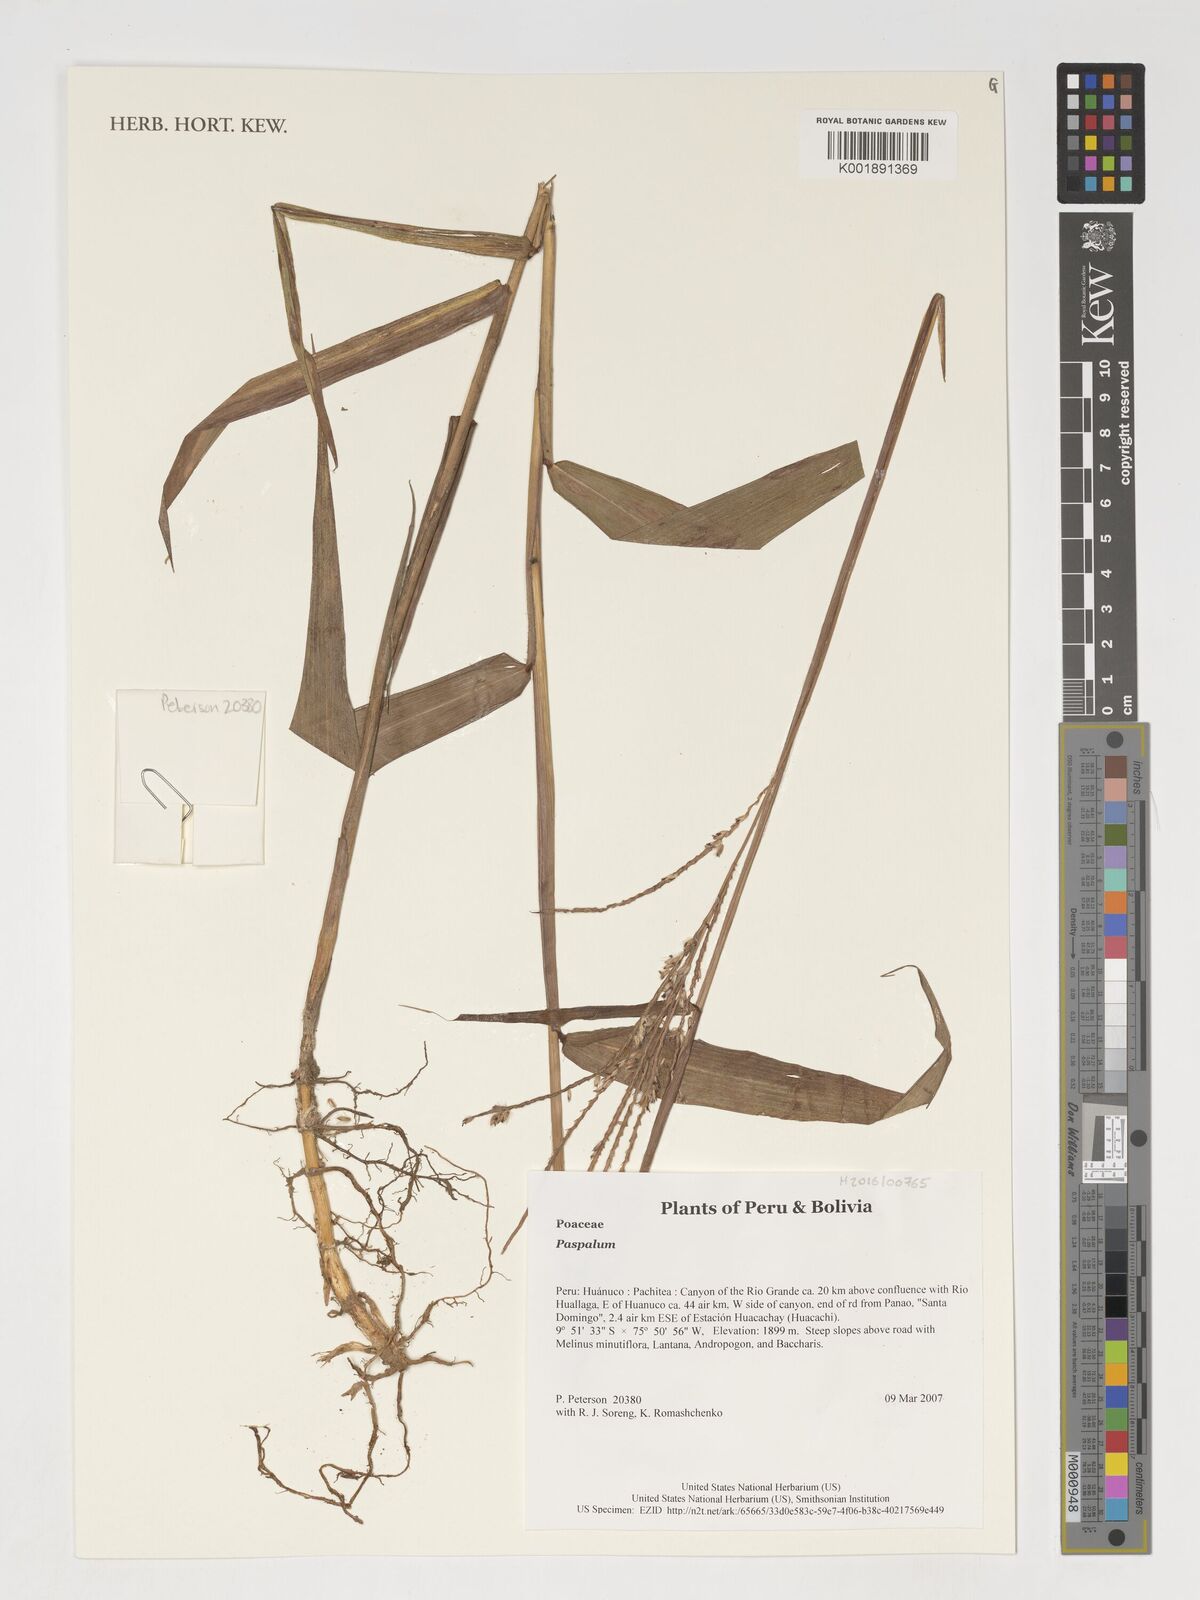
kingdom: Plantae
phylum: Tracheophyta
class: Liliopsida
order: Poales
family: Poaceae
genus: Paspalum
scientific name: Paspalum
